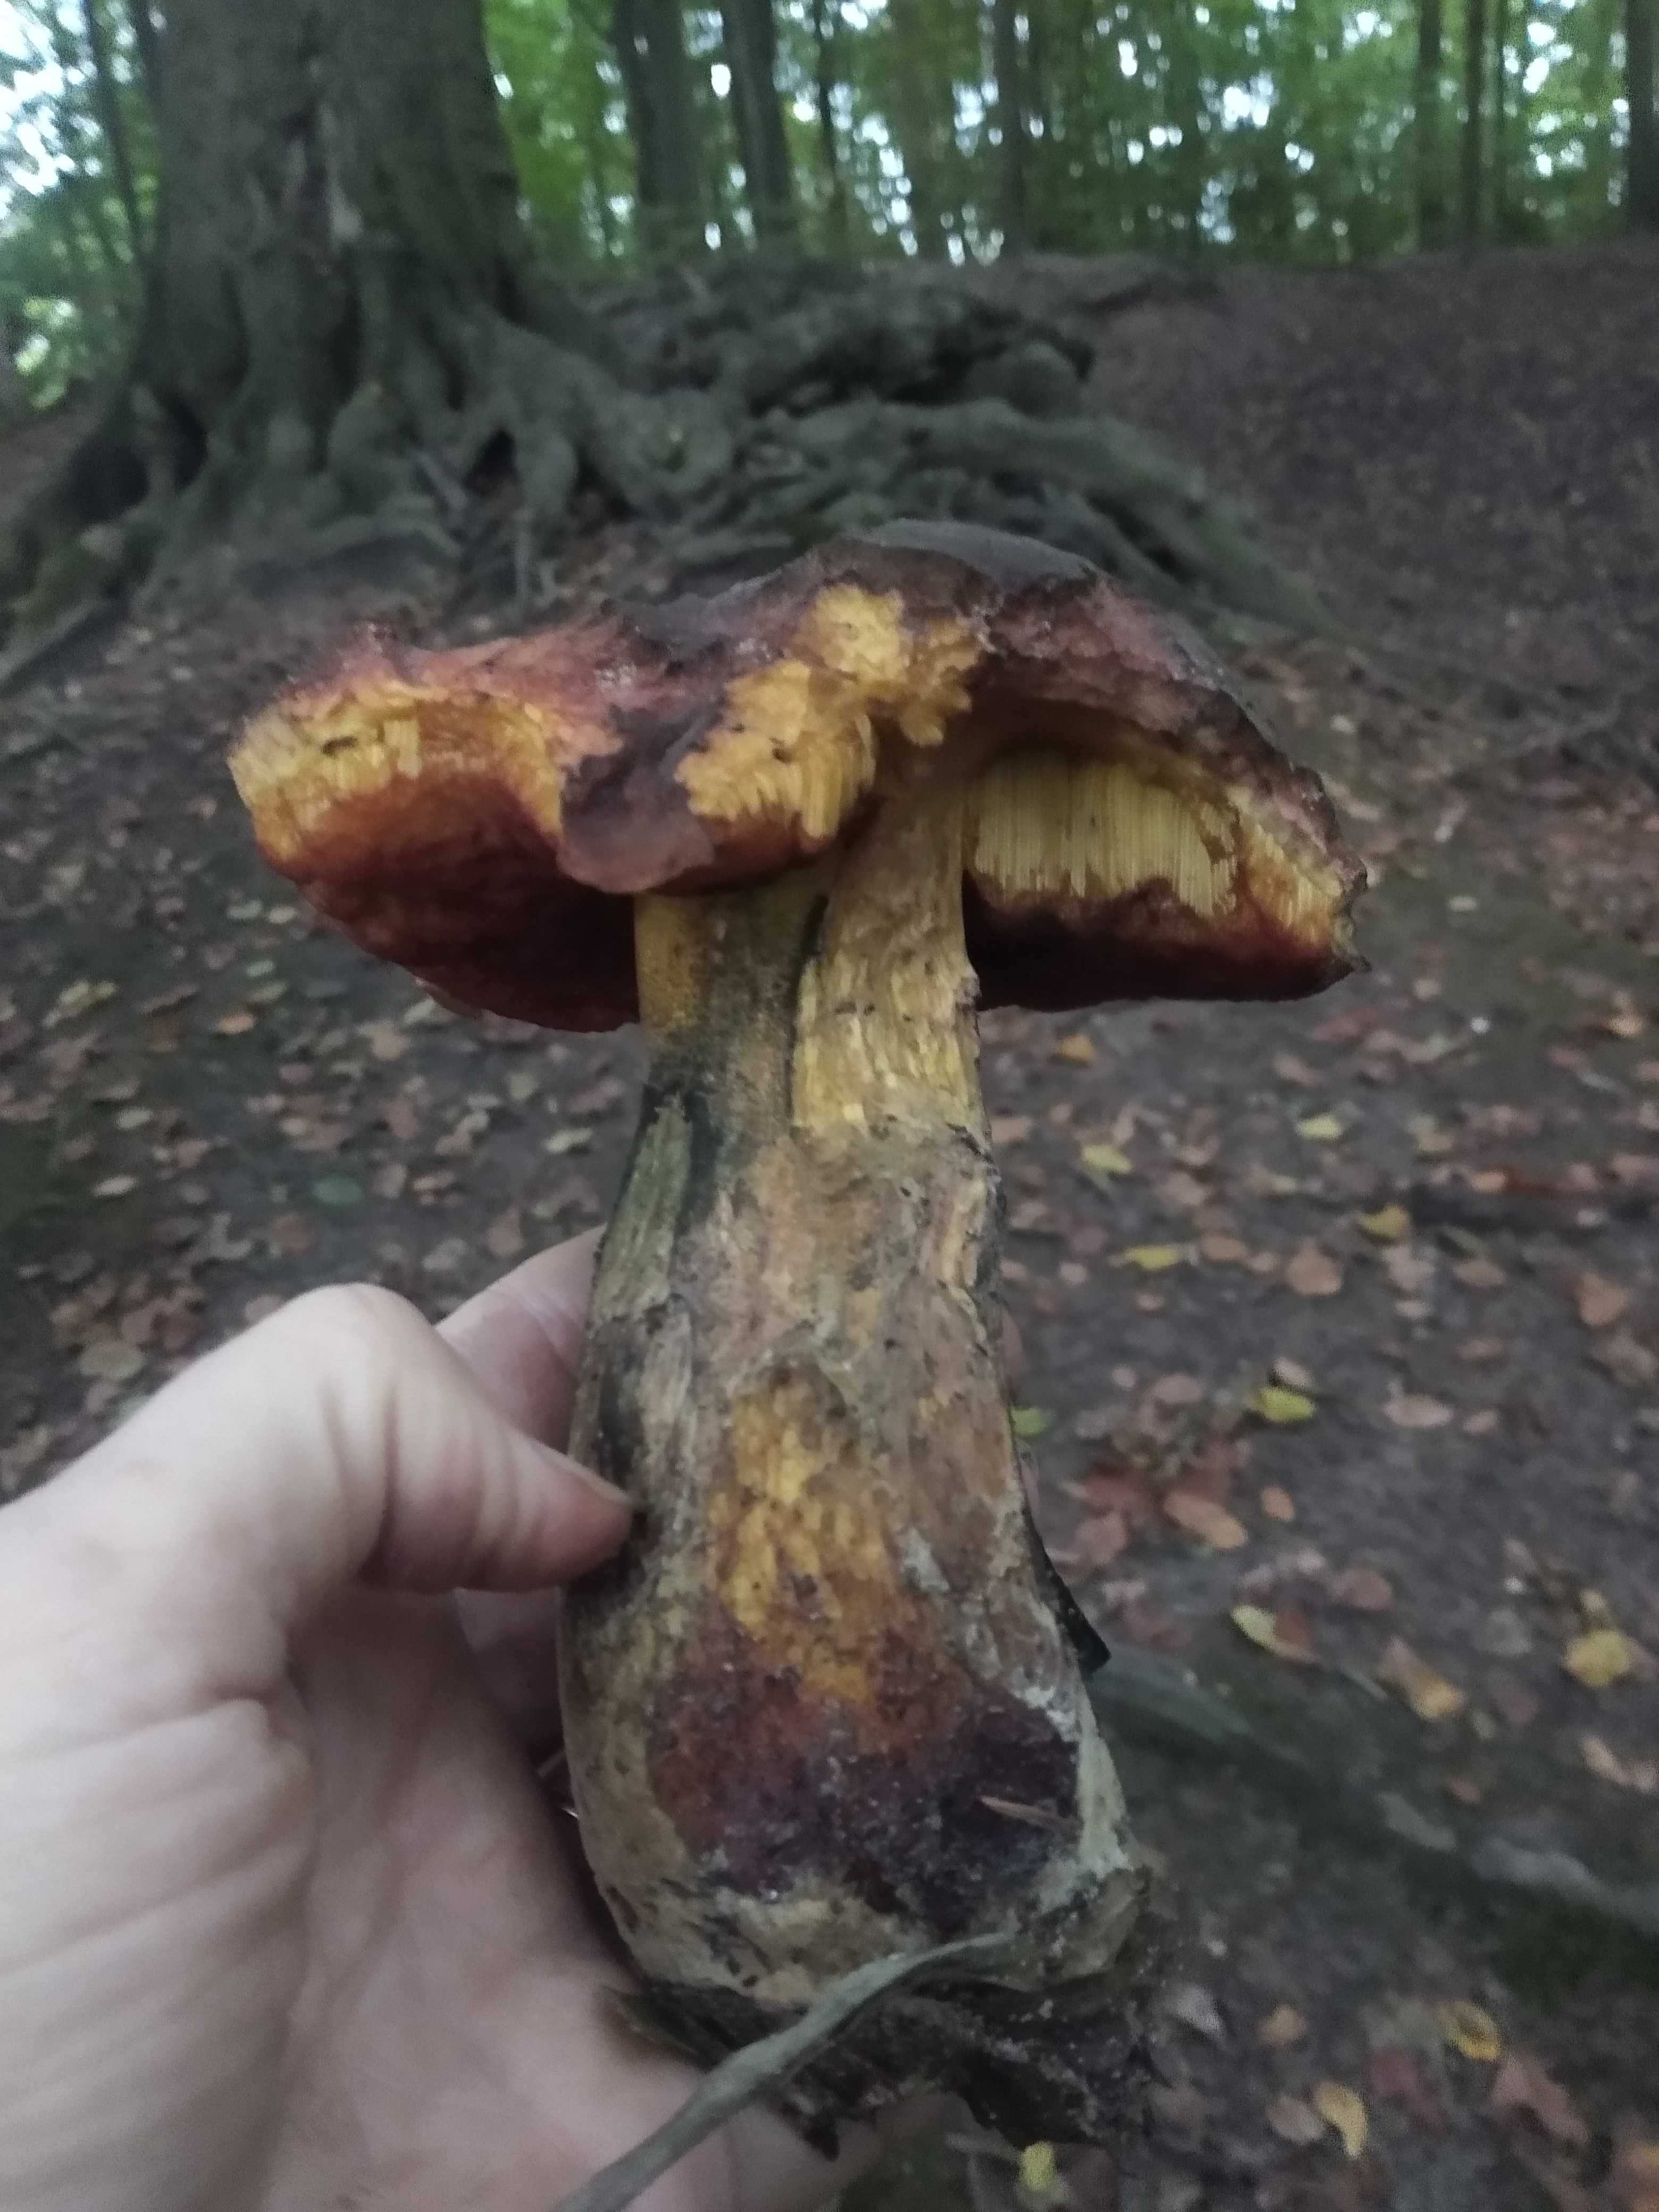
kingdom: Fungi
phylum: Basidiomycota
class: Agaricomycetes
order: Boletales
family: Boletaceae
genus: Suillellus
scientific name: Suillellus luridus
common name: netstokket indigorørhat
